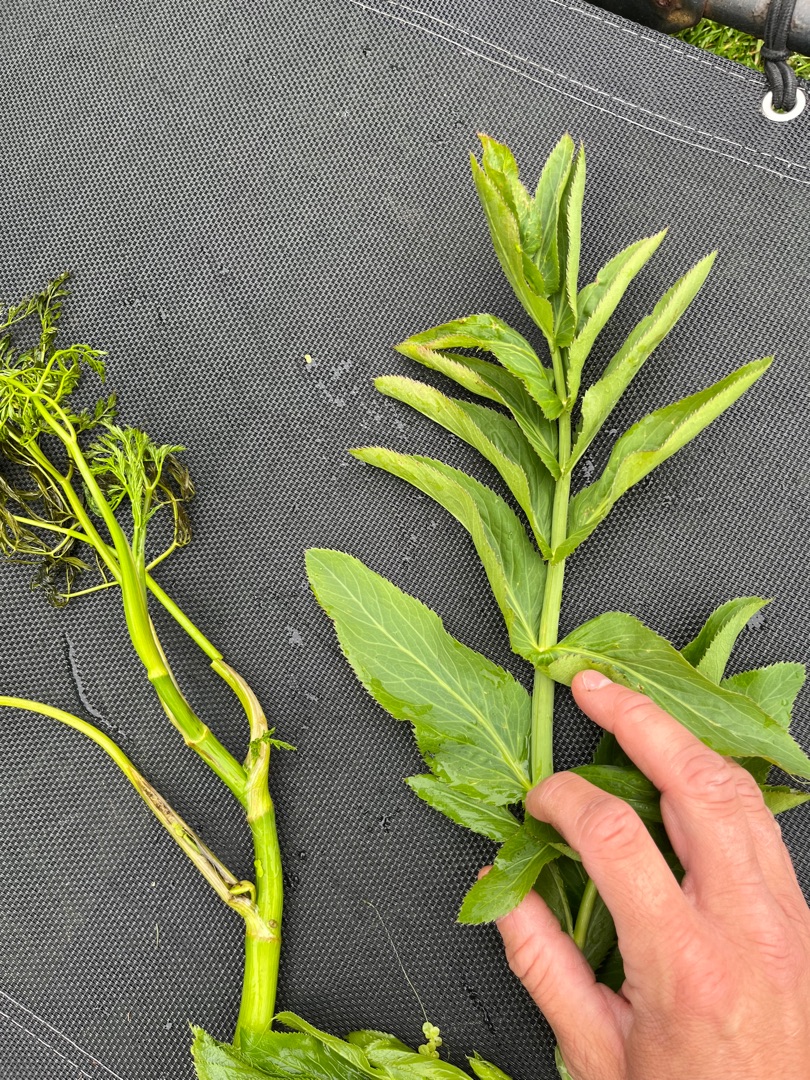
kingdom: Plantae
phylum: Tracheophyta
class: Magnoliopsida
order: Apiales
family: Apiaceae
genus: Sium
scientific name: Sium latifolium
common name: Bredbladet mærke
